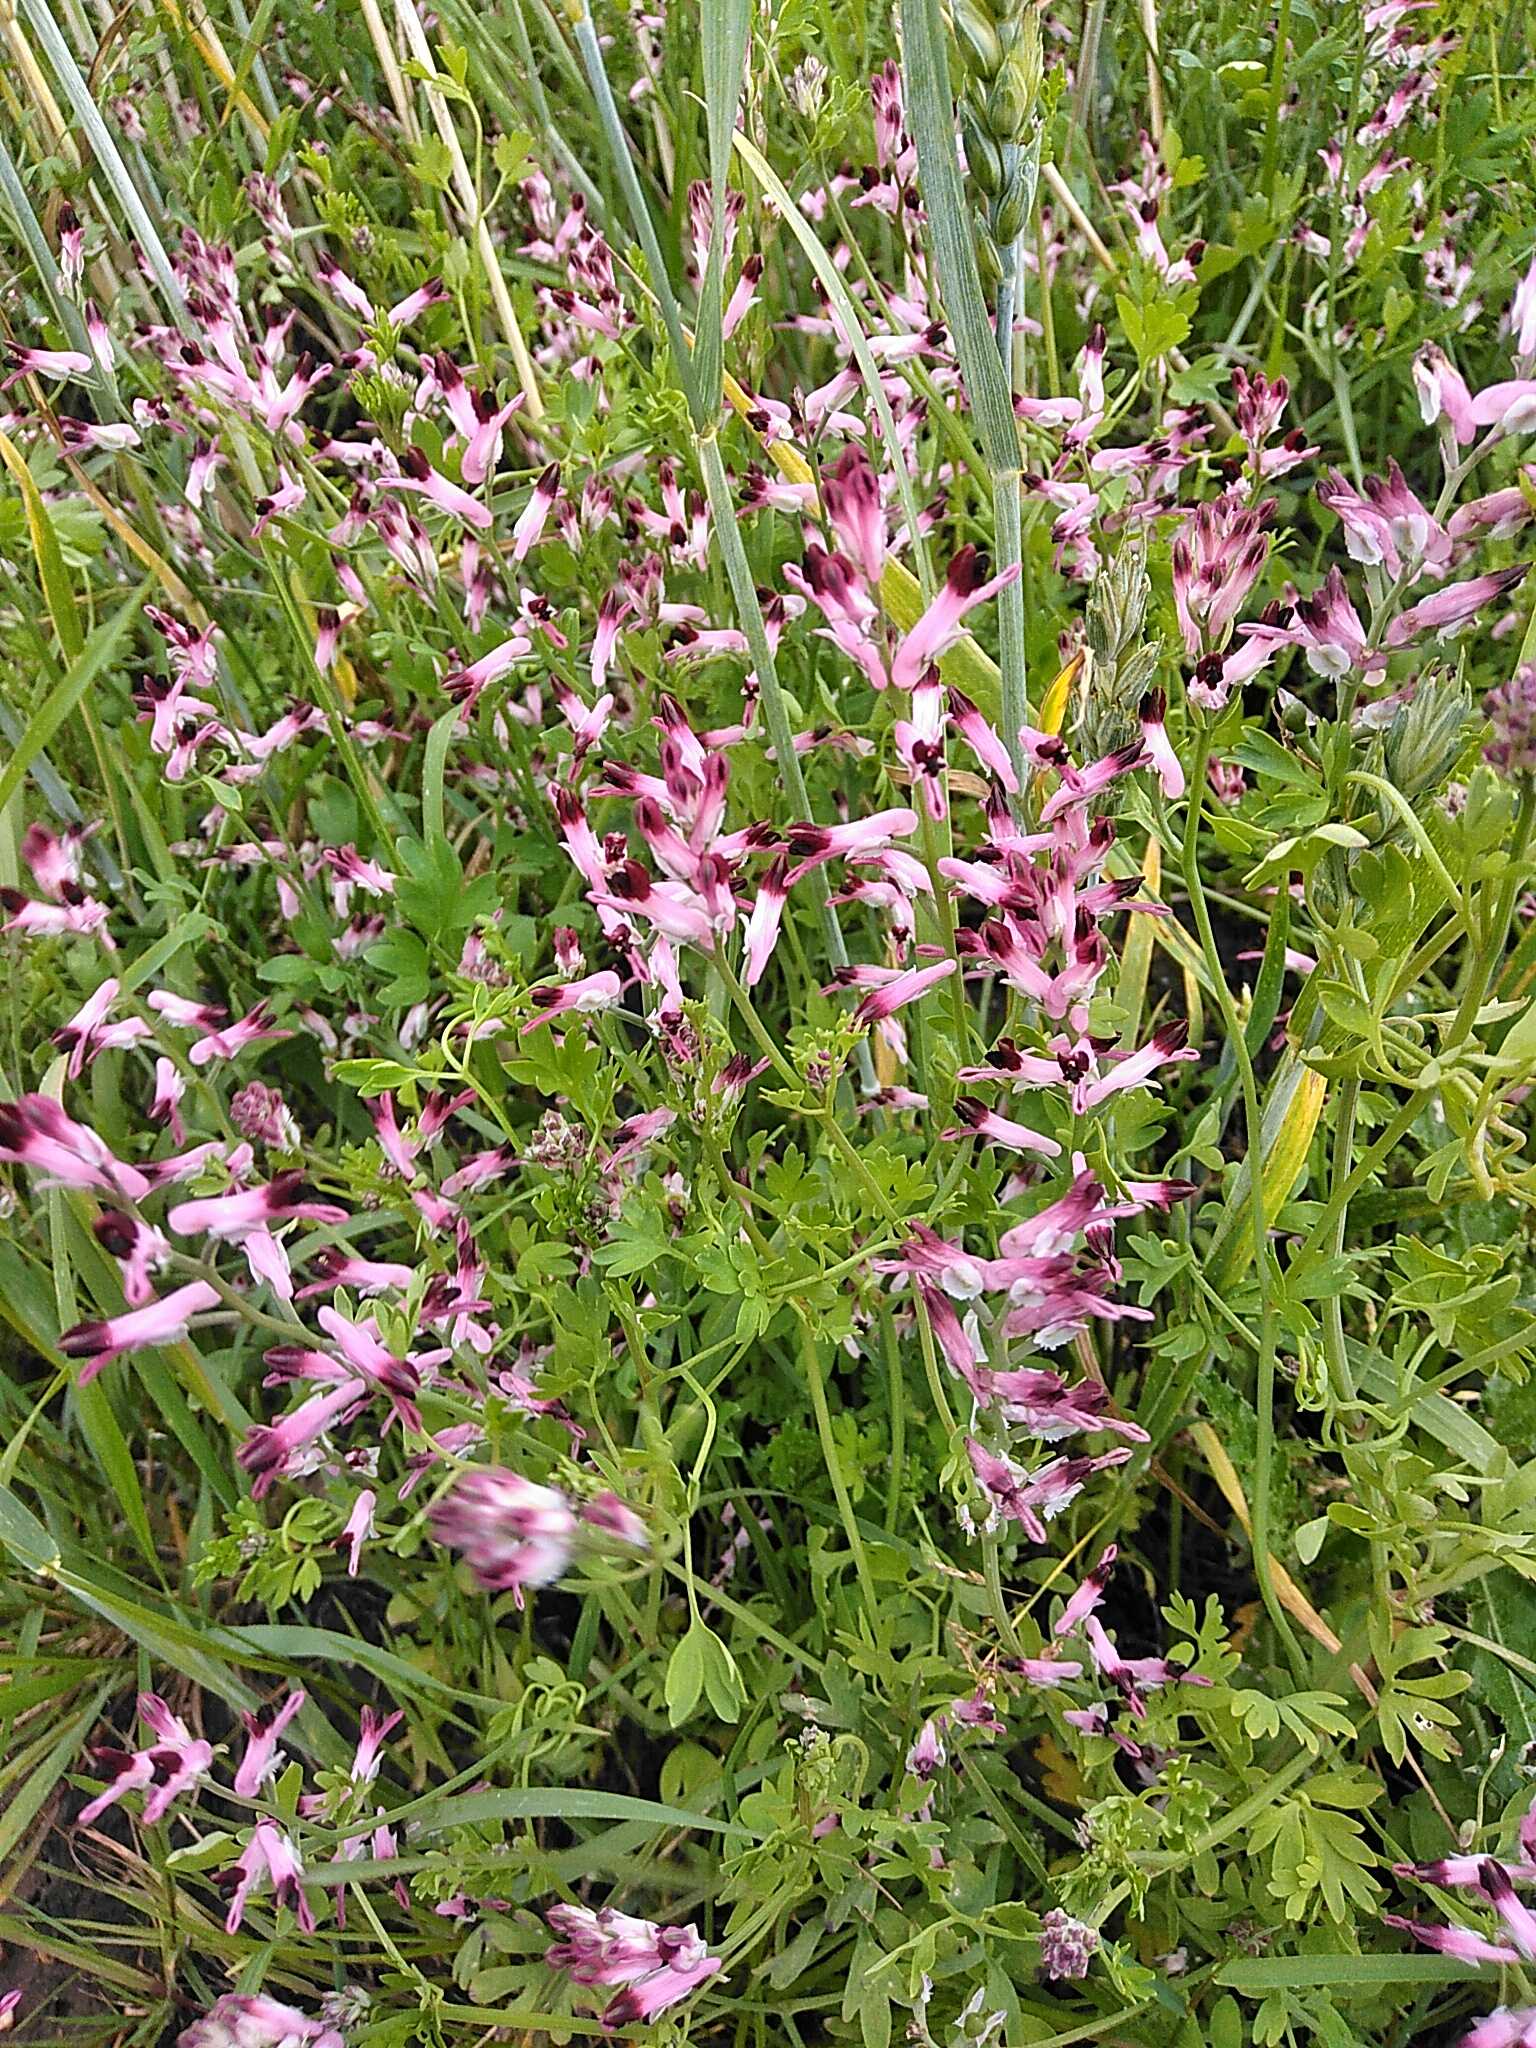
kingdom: Plantae
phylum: Tracheophyta
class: Magnoliopsida
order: Ranunculales
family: Papaveraceae
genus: Fumaria
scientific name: Fumaria muralis
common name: Mur-jordrøg
